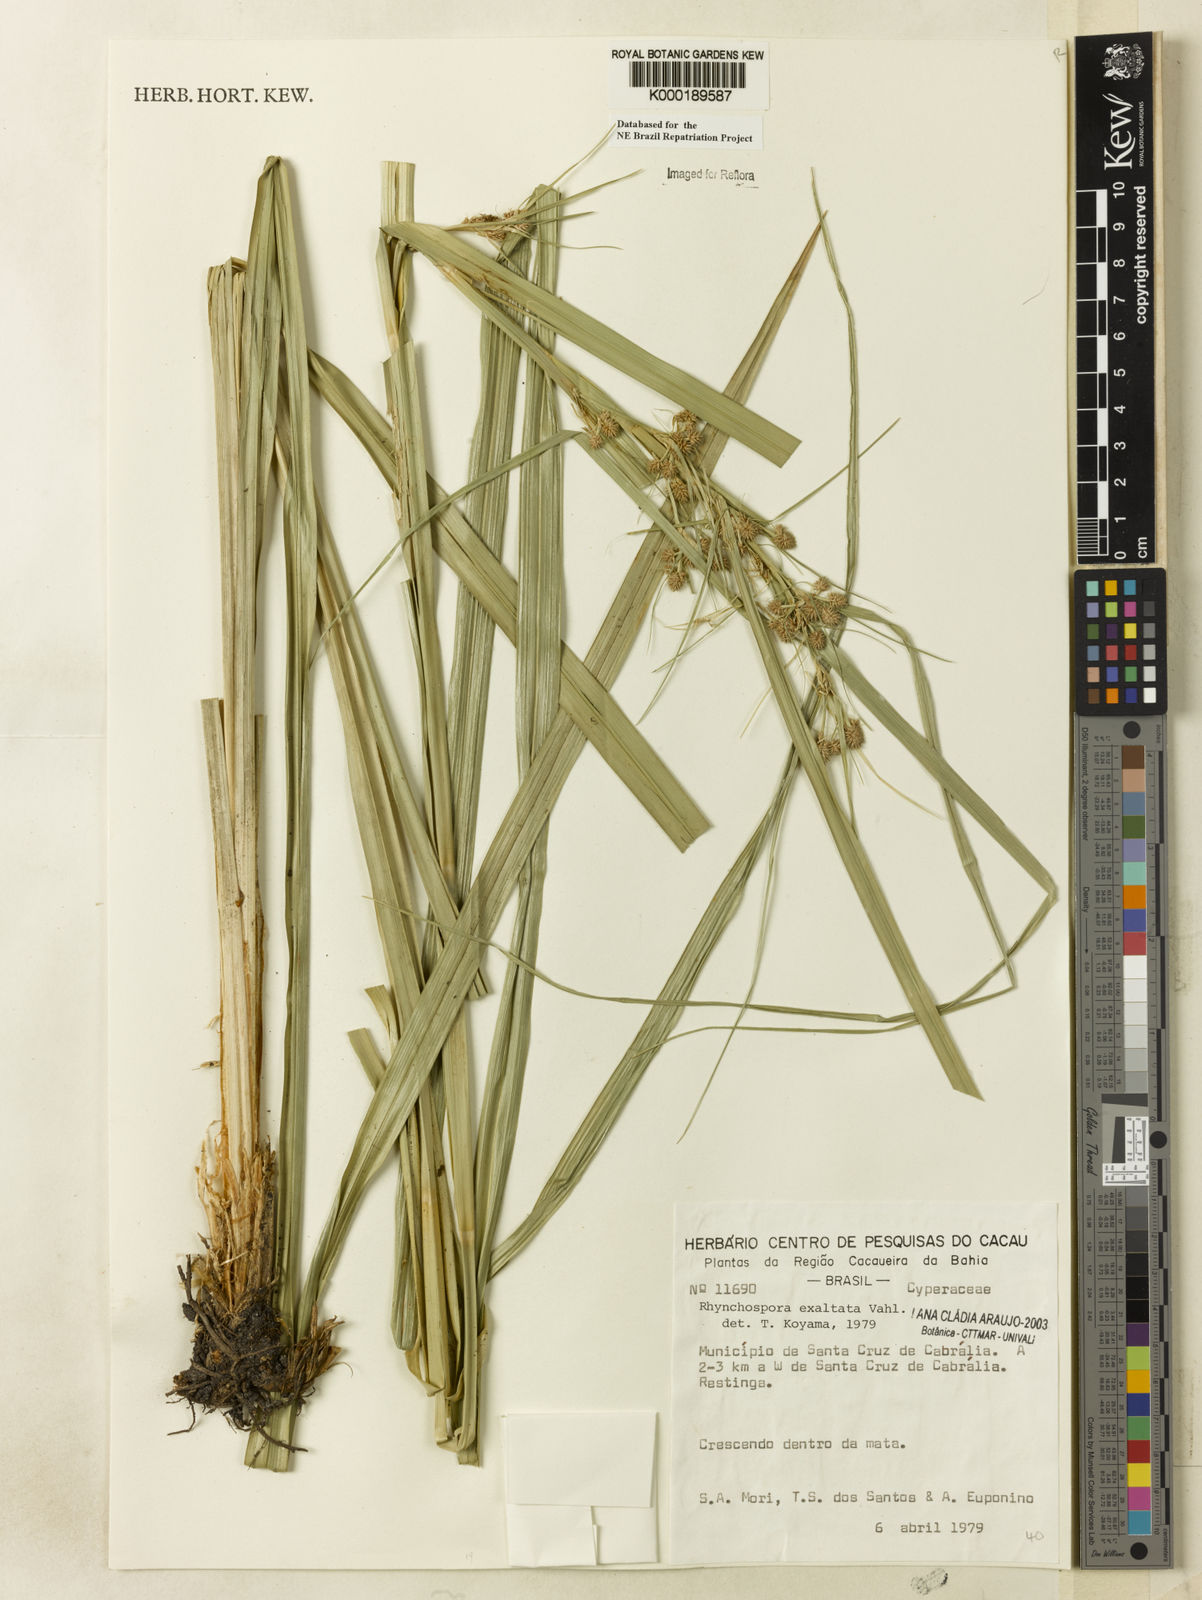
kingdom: Plantae
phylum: Tracheophyta
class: Liliopsida
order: Poales
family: Cyperaceae
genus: Rhynchospora
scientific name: Rhynchospora exaltata
